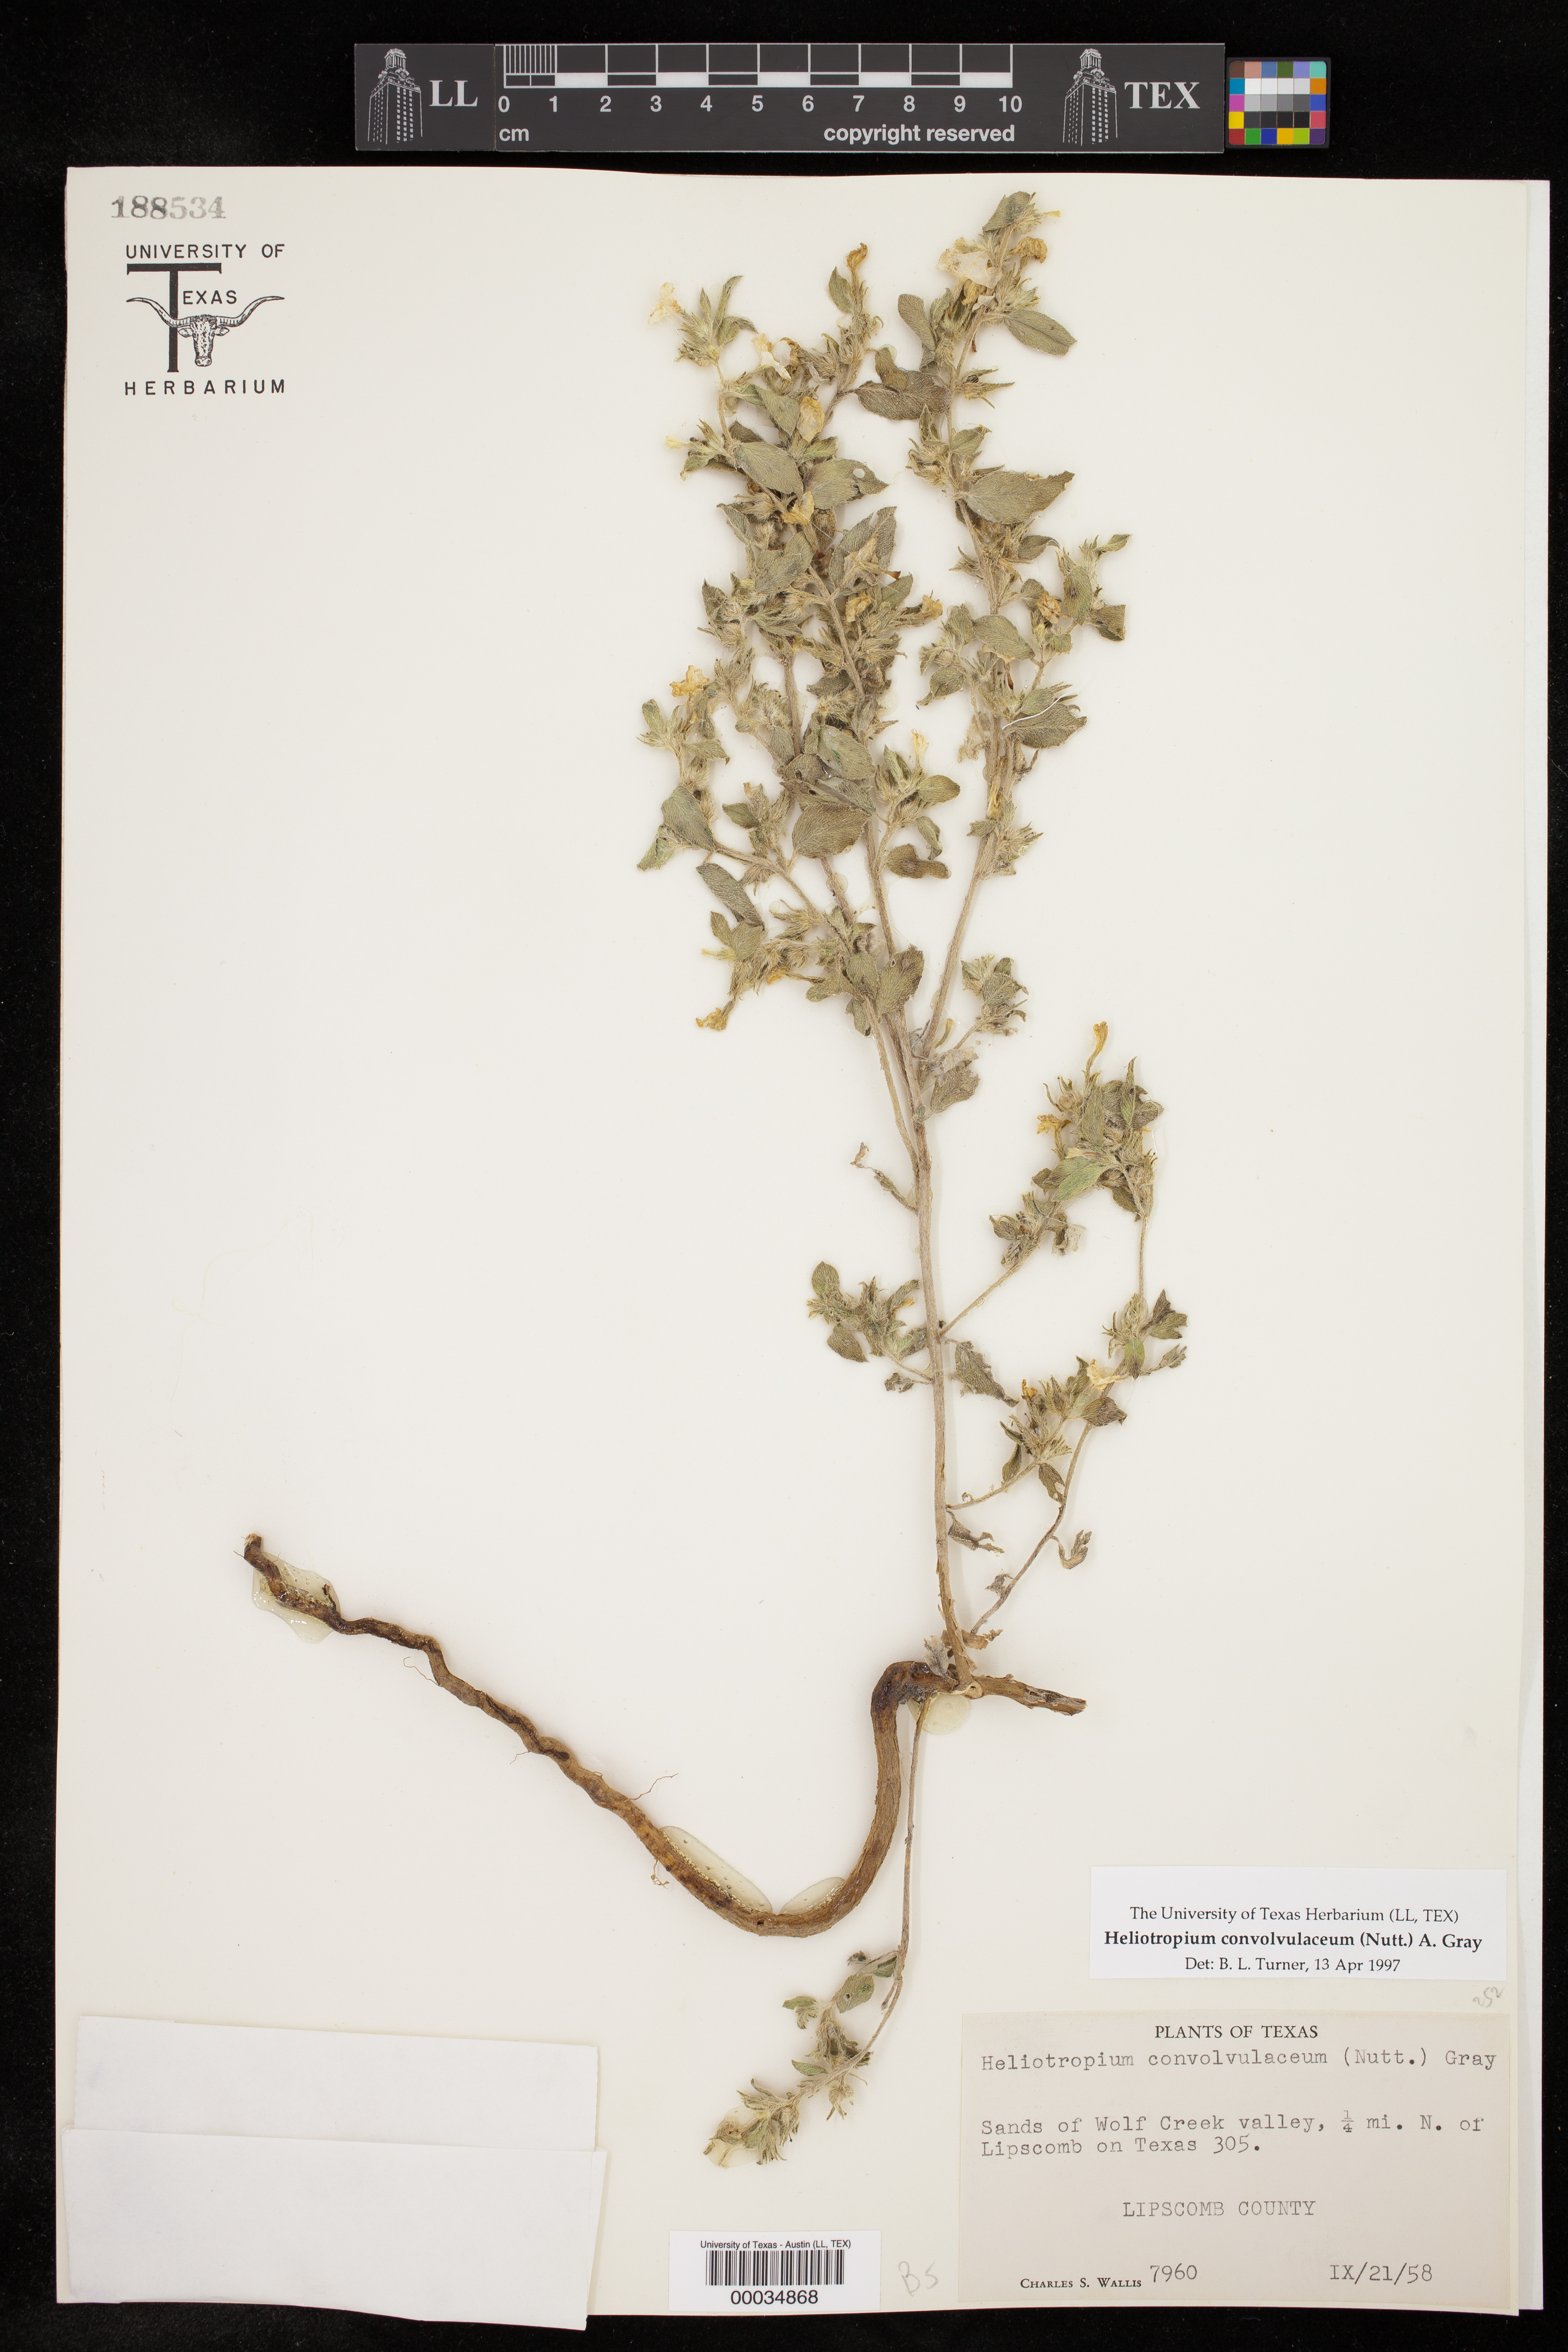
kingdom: Plantae
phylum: Tracheophyta
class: Magnoliopsida
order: Boraginales
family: Heliotropiaceae
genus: Euploca
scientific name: Euploca convolvulacea
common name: Bindweed heliotrope
